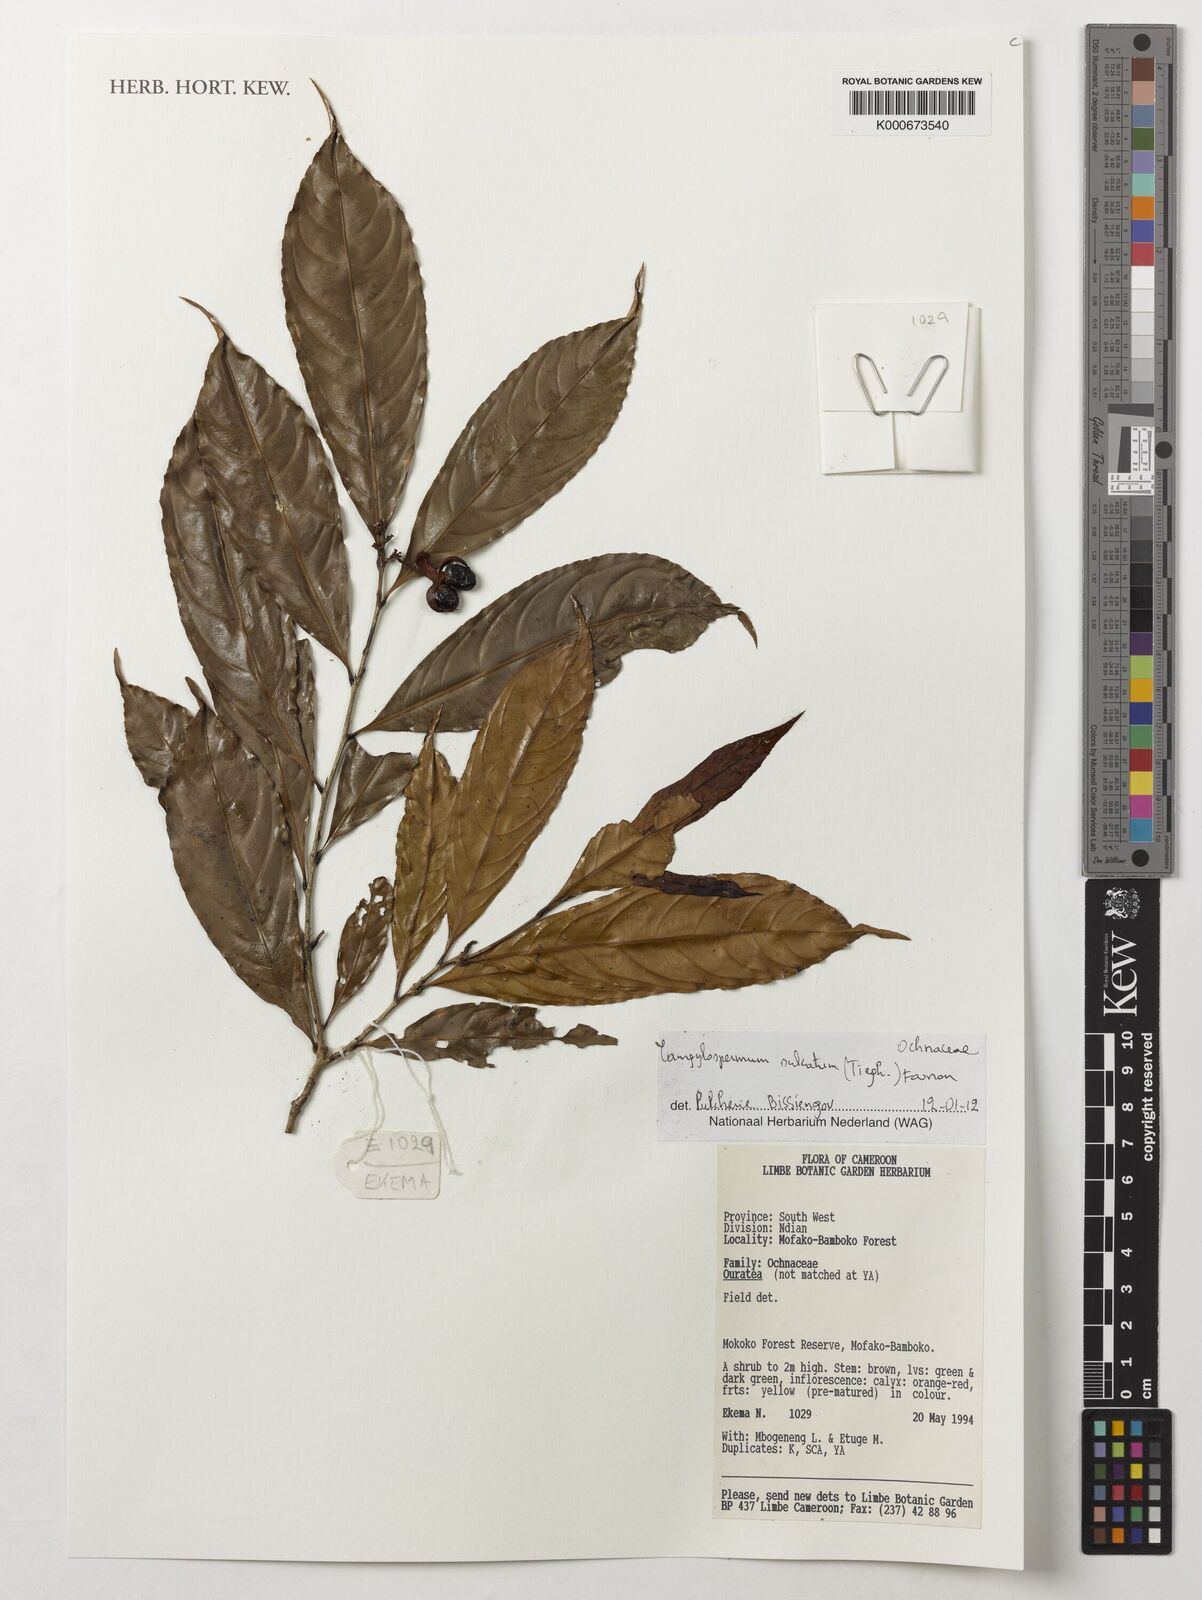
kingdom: Plantae
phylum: Tracheophyta
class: Magnoliopsida
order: Malpighiales
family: Ochnaceae
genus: Campylospermum
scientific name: Campylospermum sulcatum
